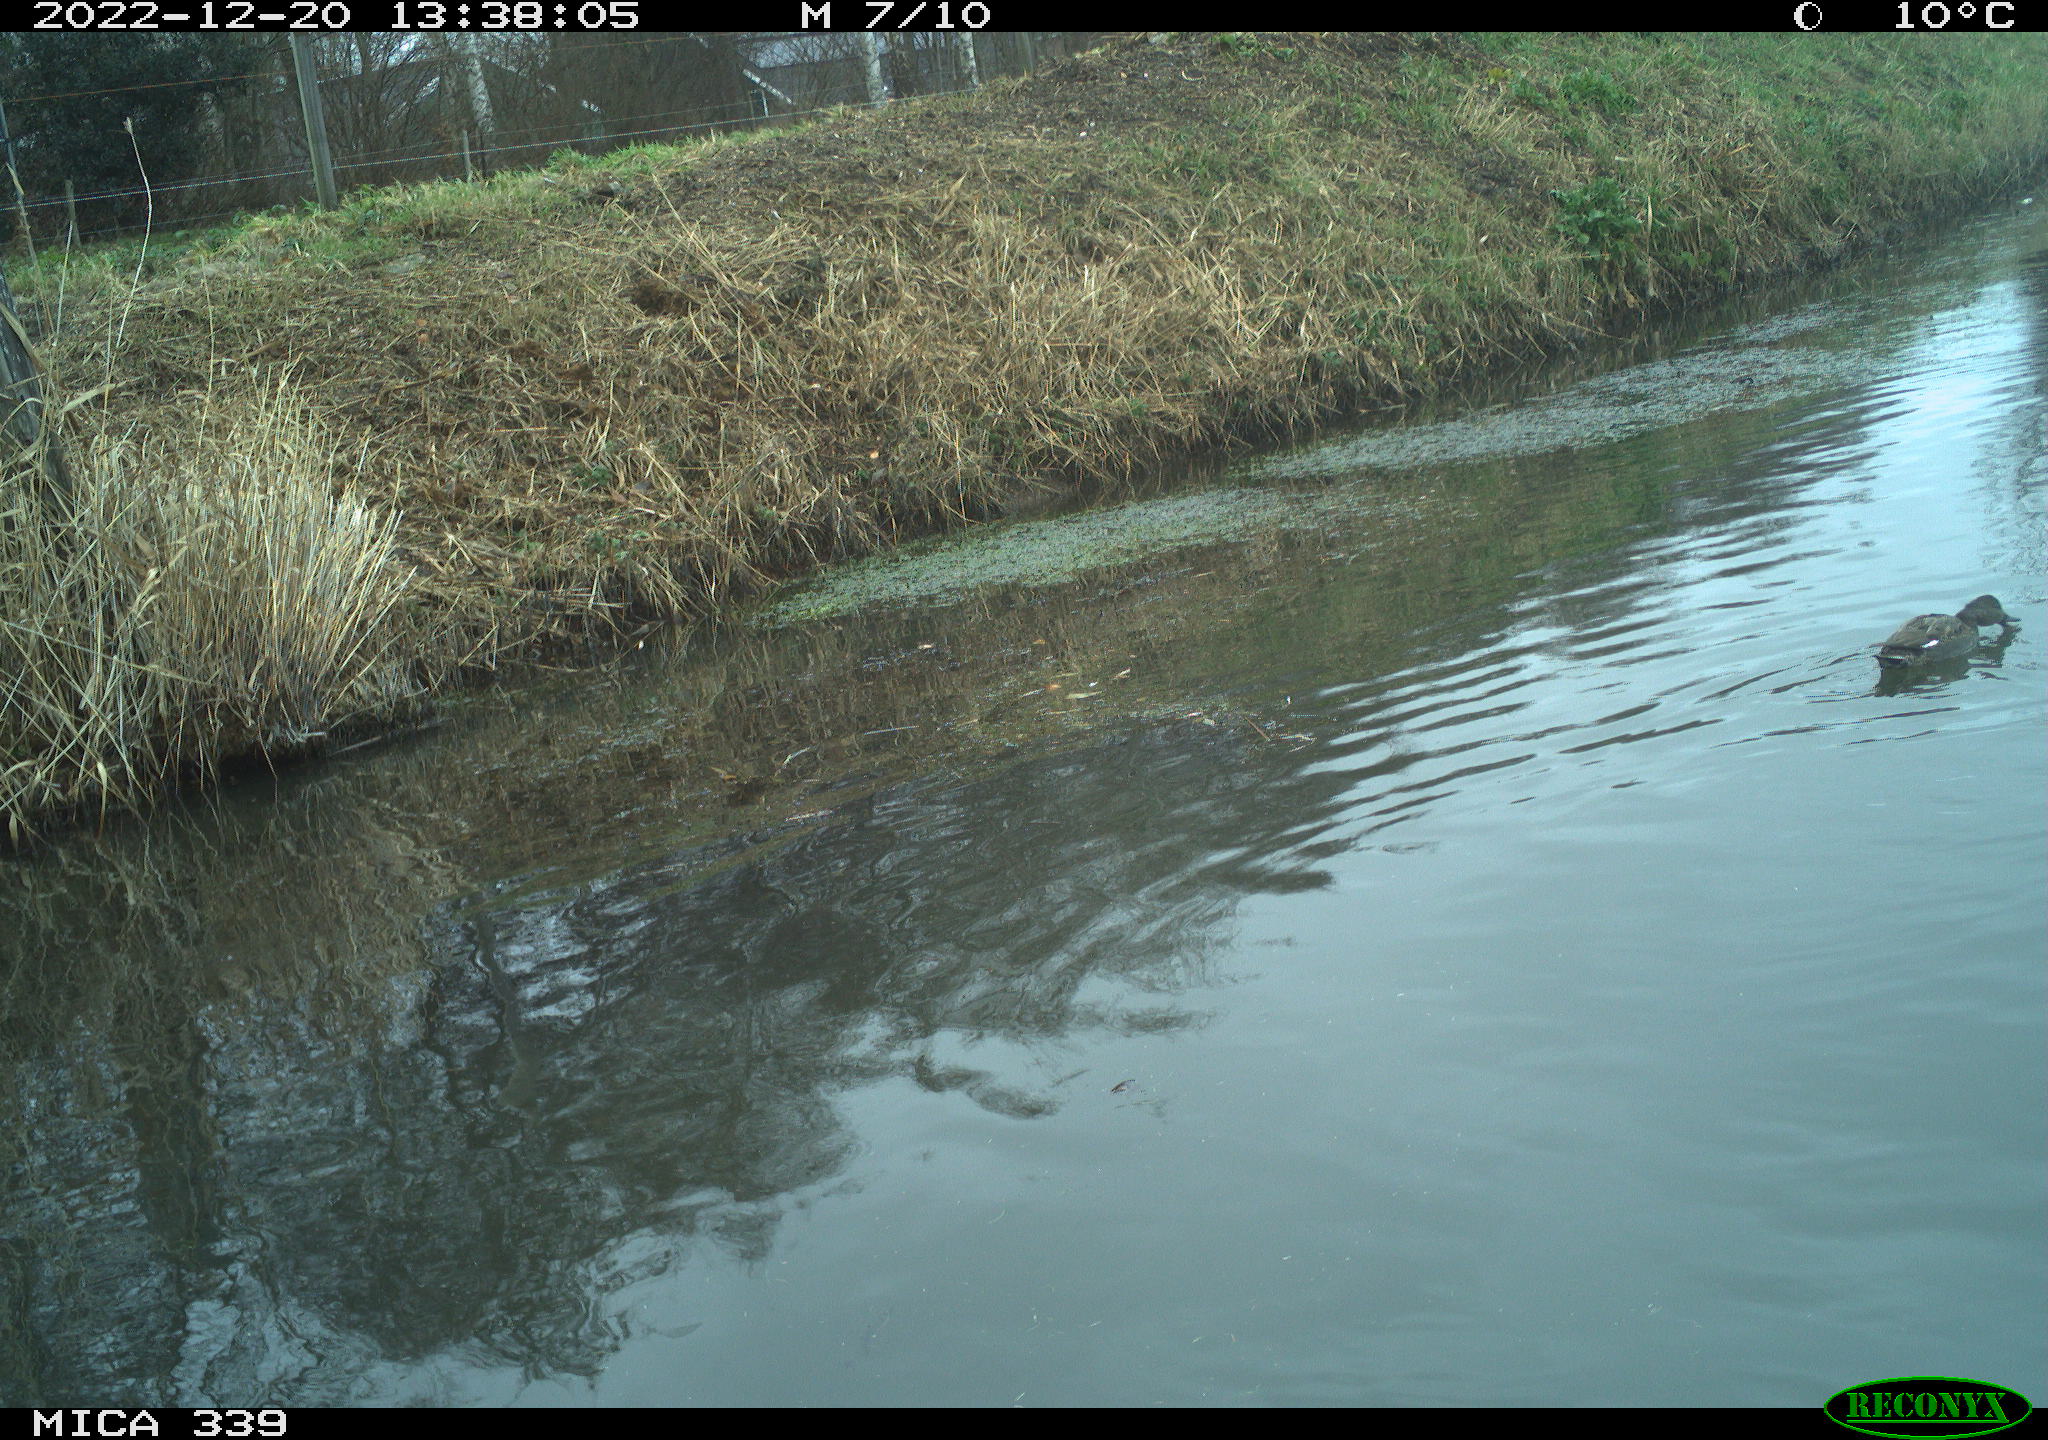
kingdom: Animalia
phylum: Chordata
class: Aves
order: Anseriformes
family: Anatidae
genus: Anas
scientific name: Anas
